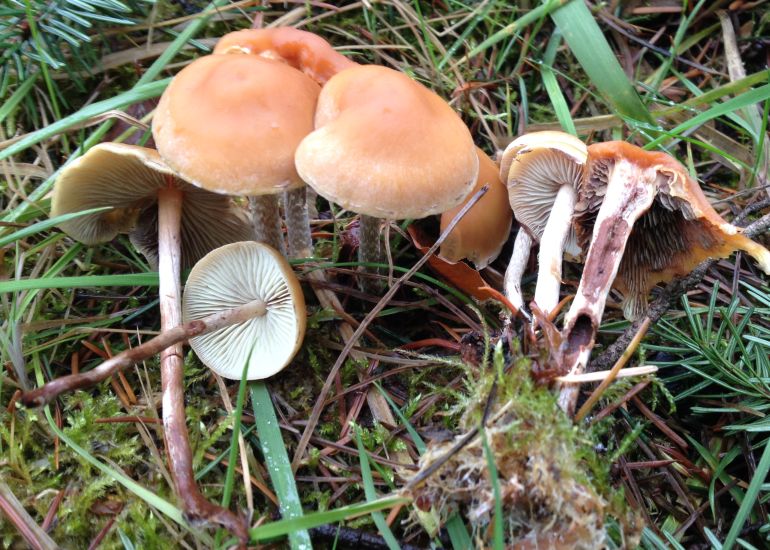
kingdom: Fungi
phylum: Basidiomycota
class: Agaricomycetes
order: Agaricales
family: Strophariaceae
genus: Hypholoma
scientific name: Hypholoma marginatum
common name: enlig svovlhat
